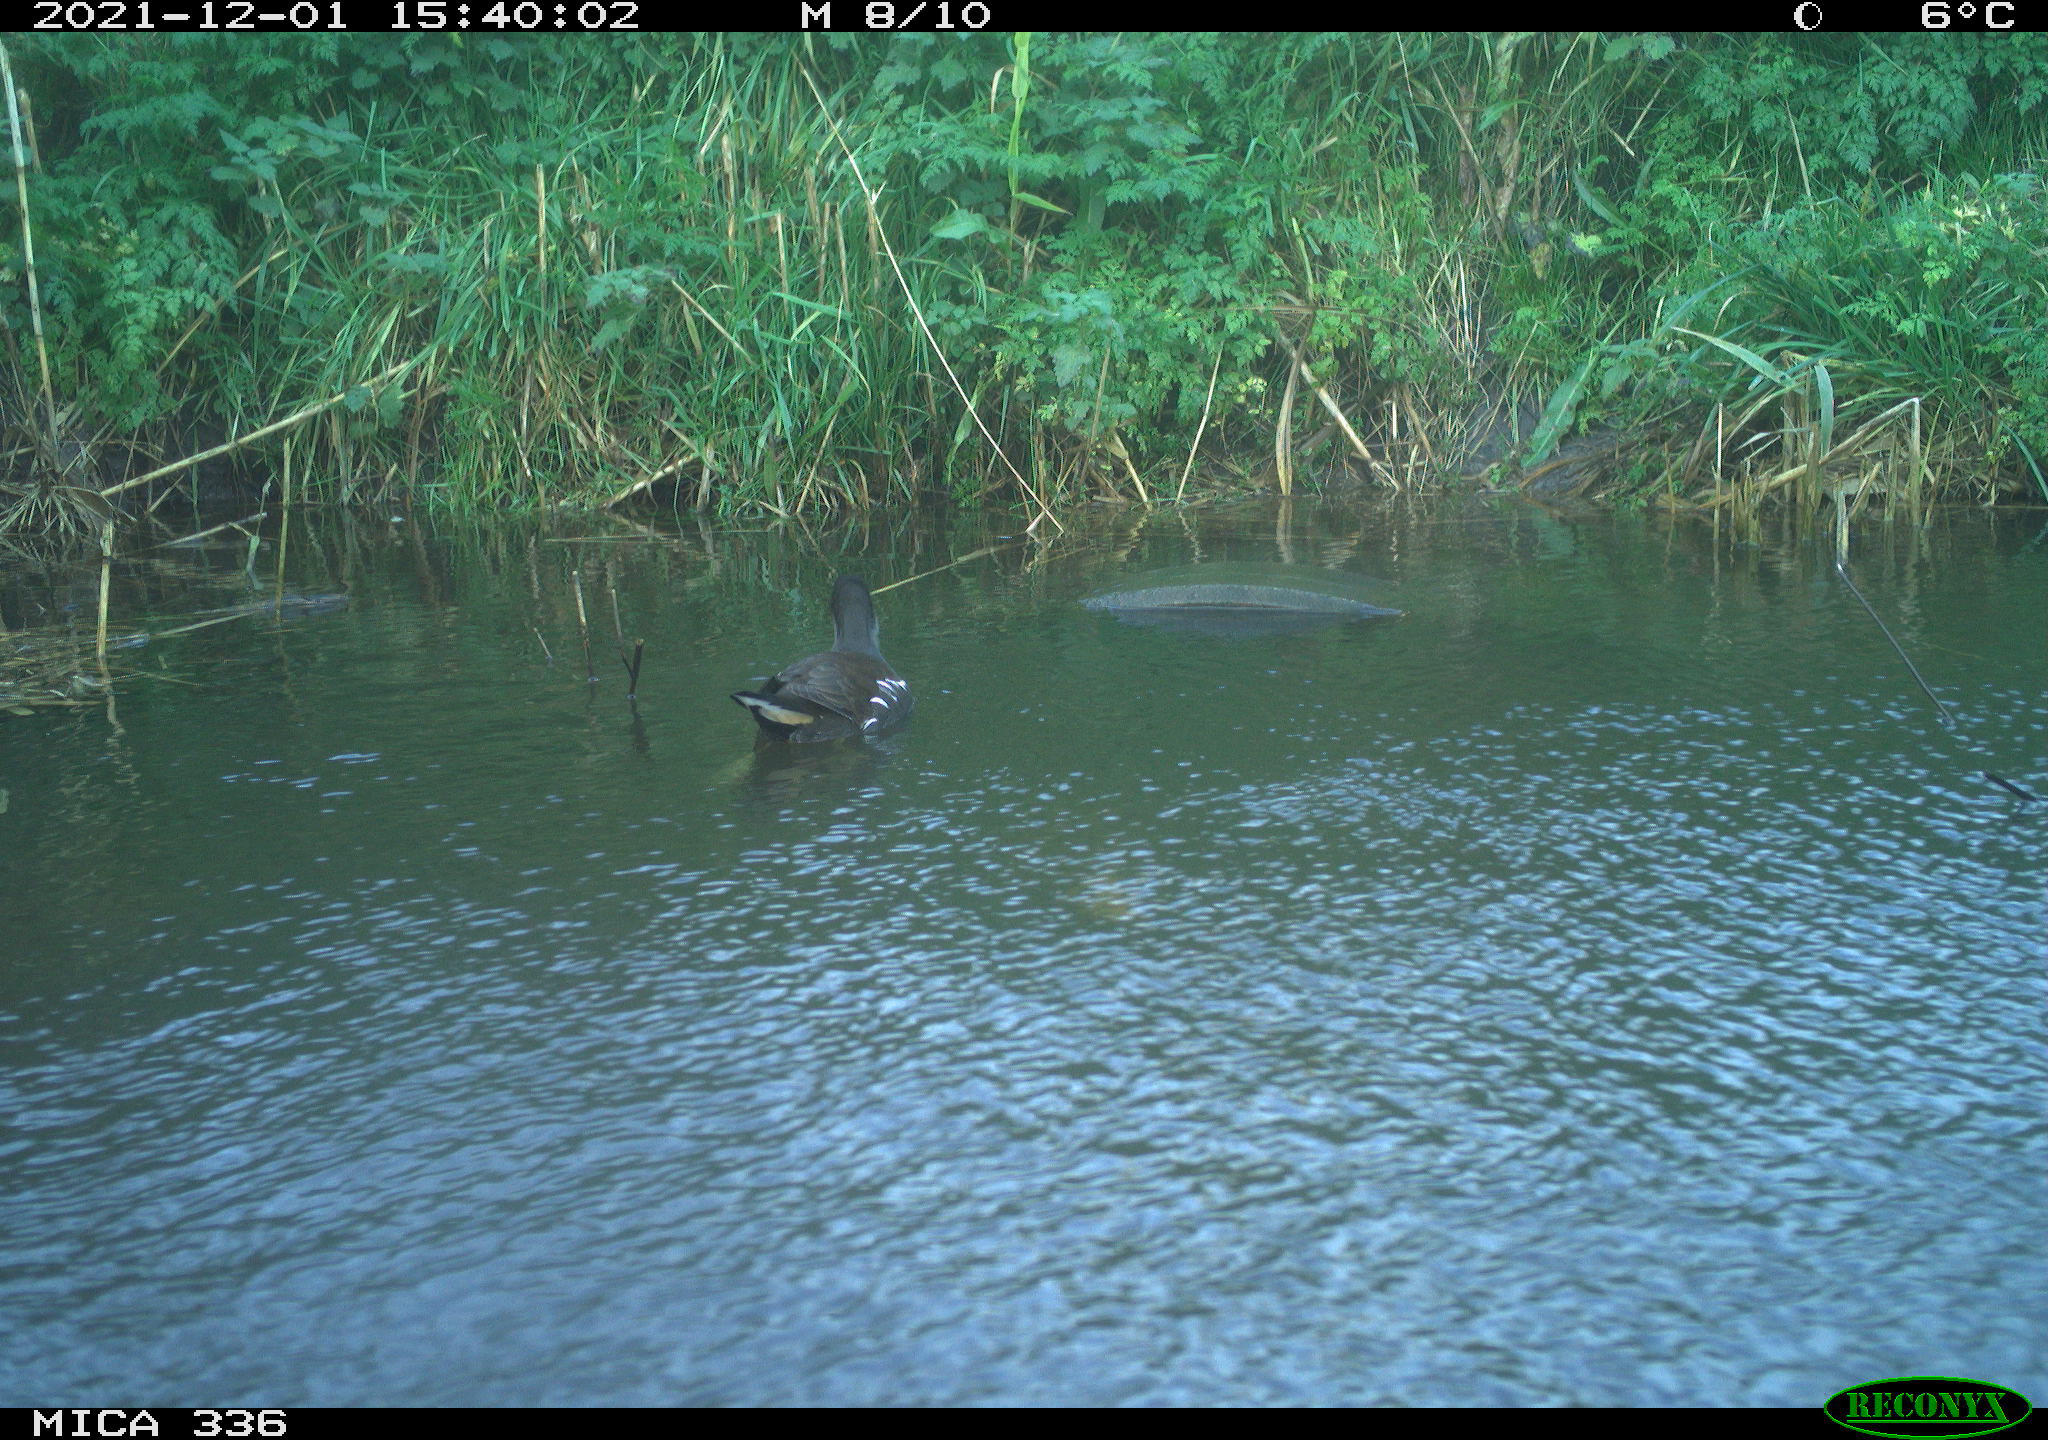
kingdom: Animalia
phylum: Chordata
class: Aves
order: Gruiformes
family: Rallidae
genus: Gallinula
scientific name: Gallinula chloropus
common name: Common moorhen
